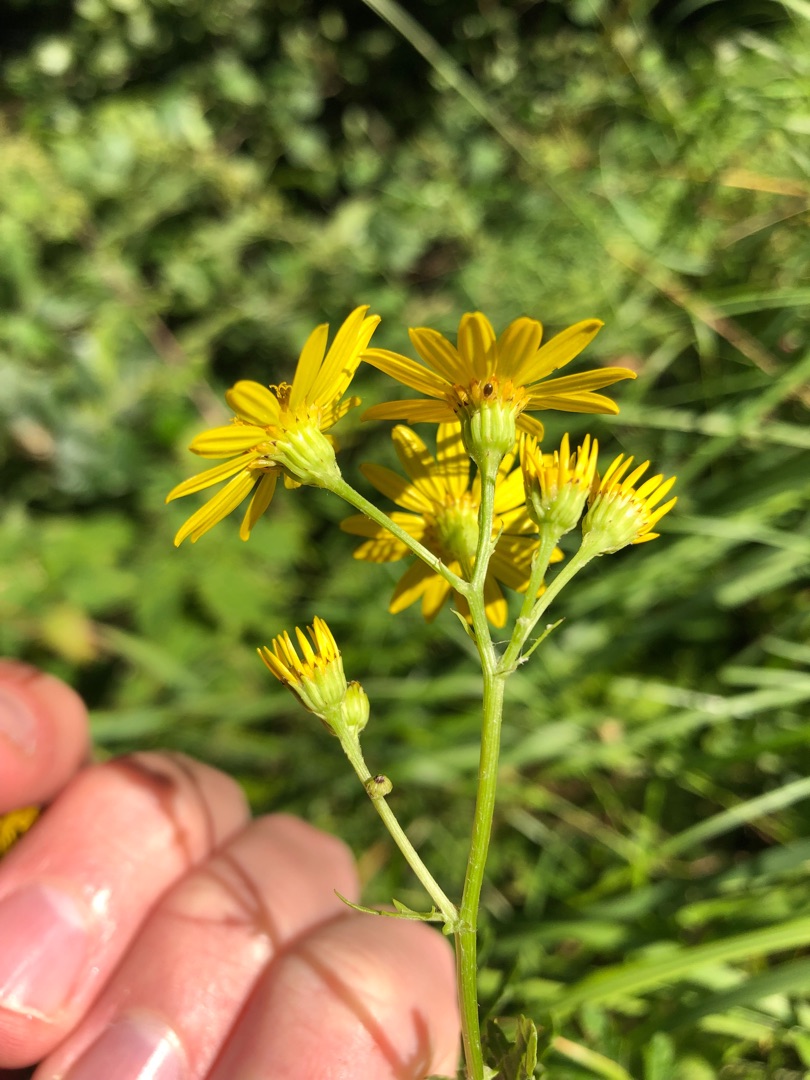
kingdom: Plantae
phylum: Tracheophyta
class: Magnoliopsida
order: Asterales
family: Asteraceae
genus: Jacobaea
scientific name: Jacobaea vulgaris
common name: Eng-brandbæger
